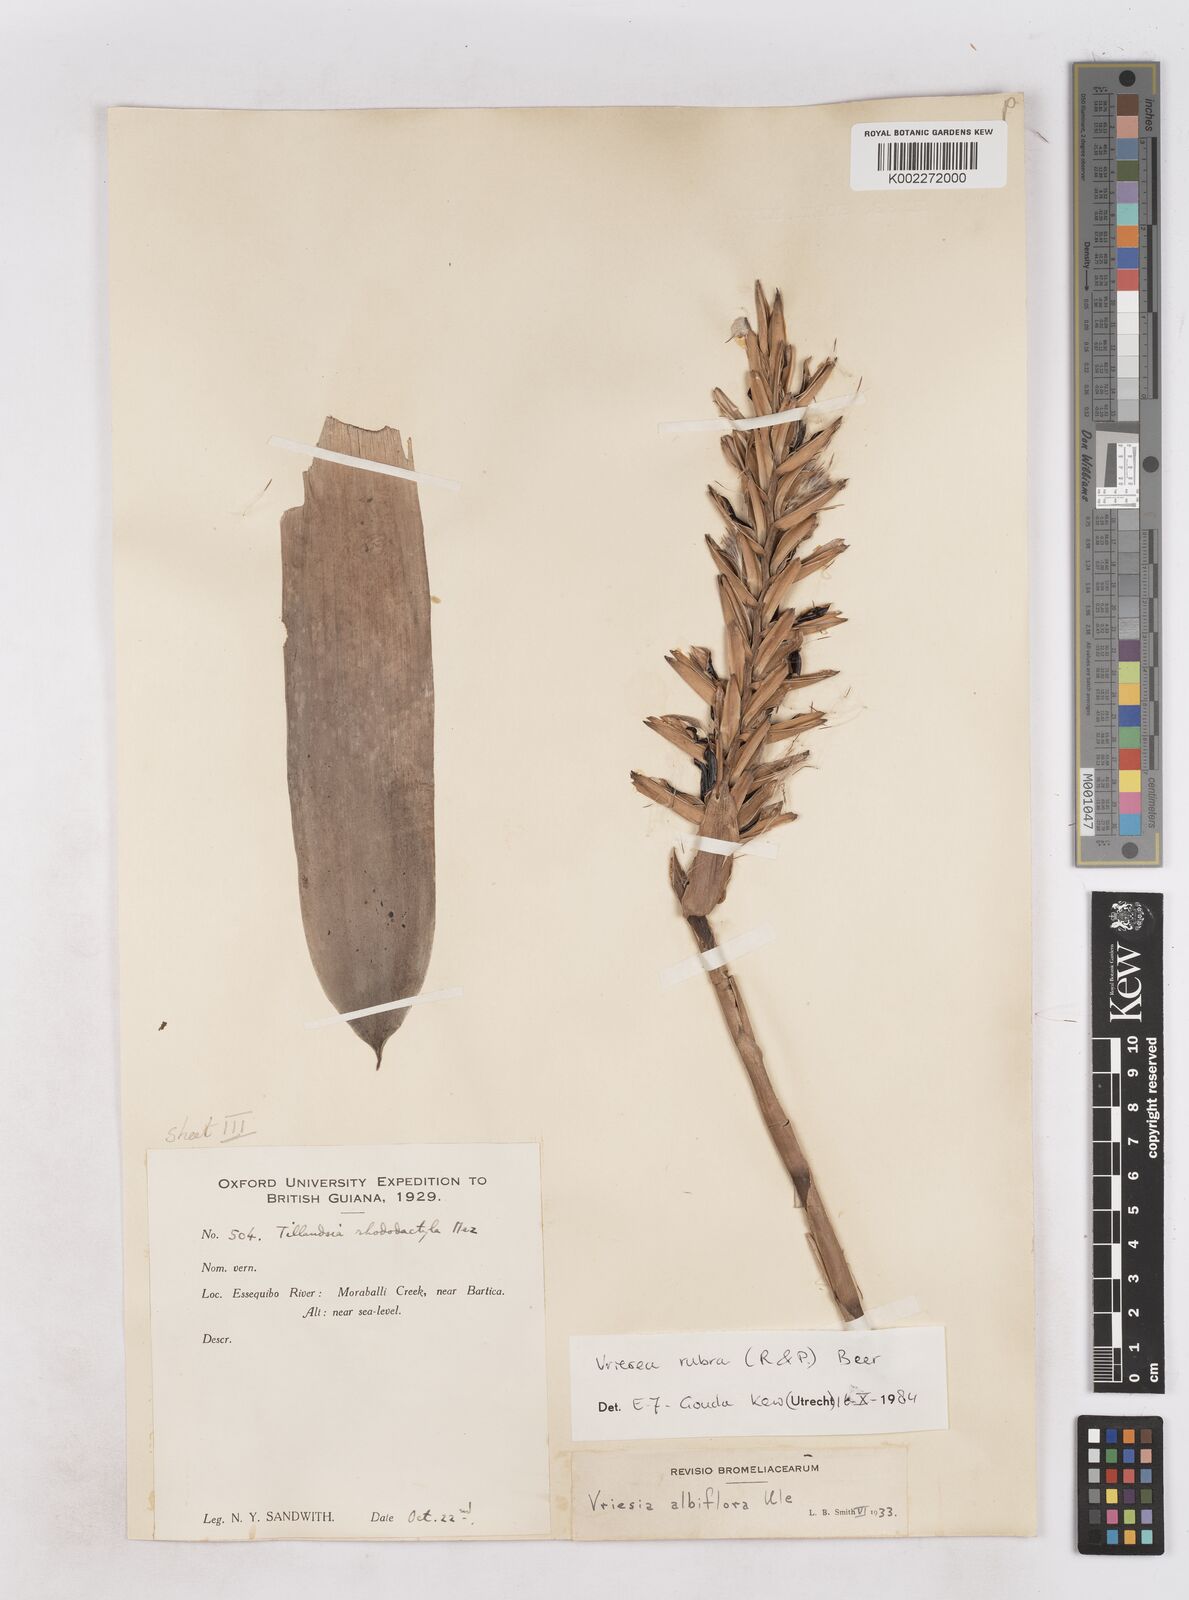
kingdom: Plantae
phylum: Tracheophyta
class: Liliopsida
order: Poales
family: Bromeliaceae
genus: Vriesea
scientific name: Vriesea rubra
